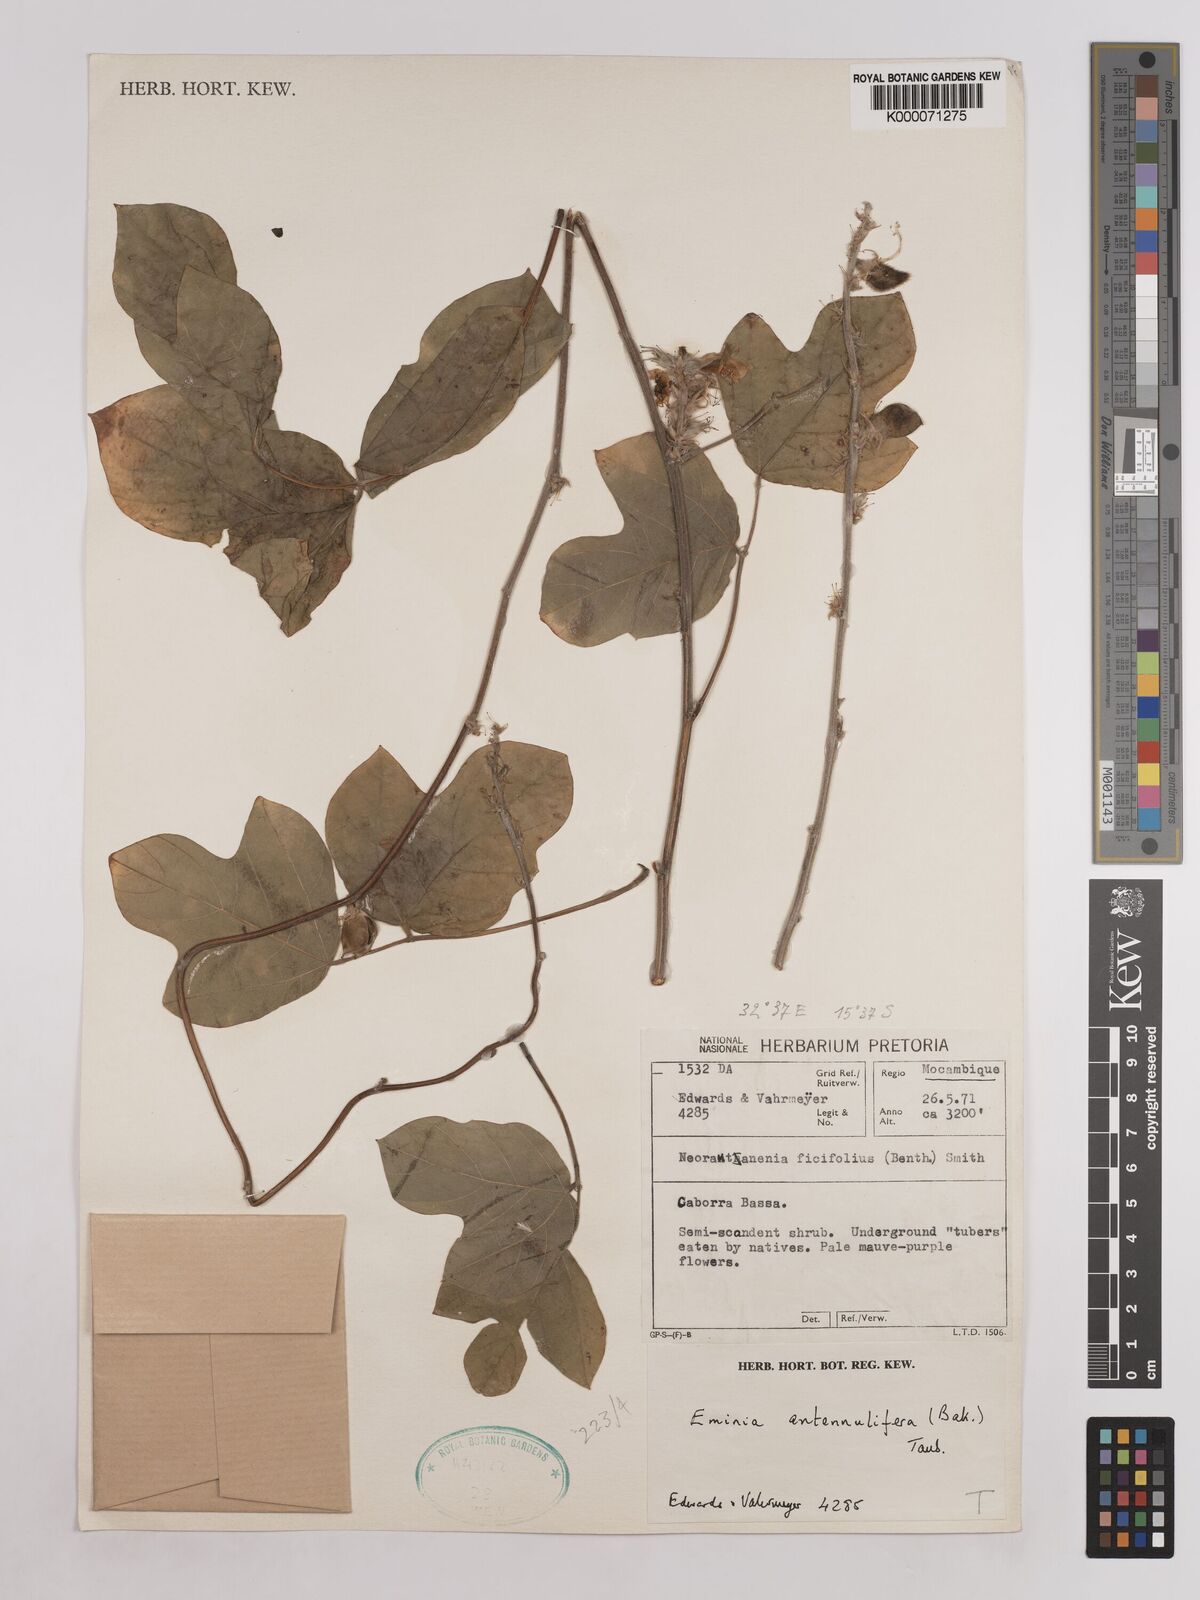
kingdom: Plantae
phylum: Tracheophyta
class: Magnoliopsida
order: Fabales
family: Fabaceae
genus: Eminia
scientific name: Eminia antennulifera
